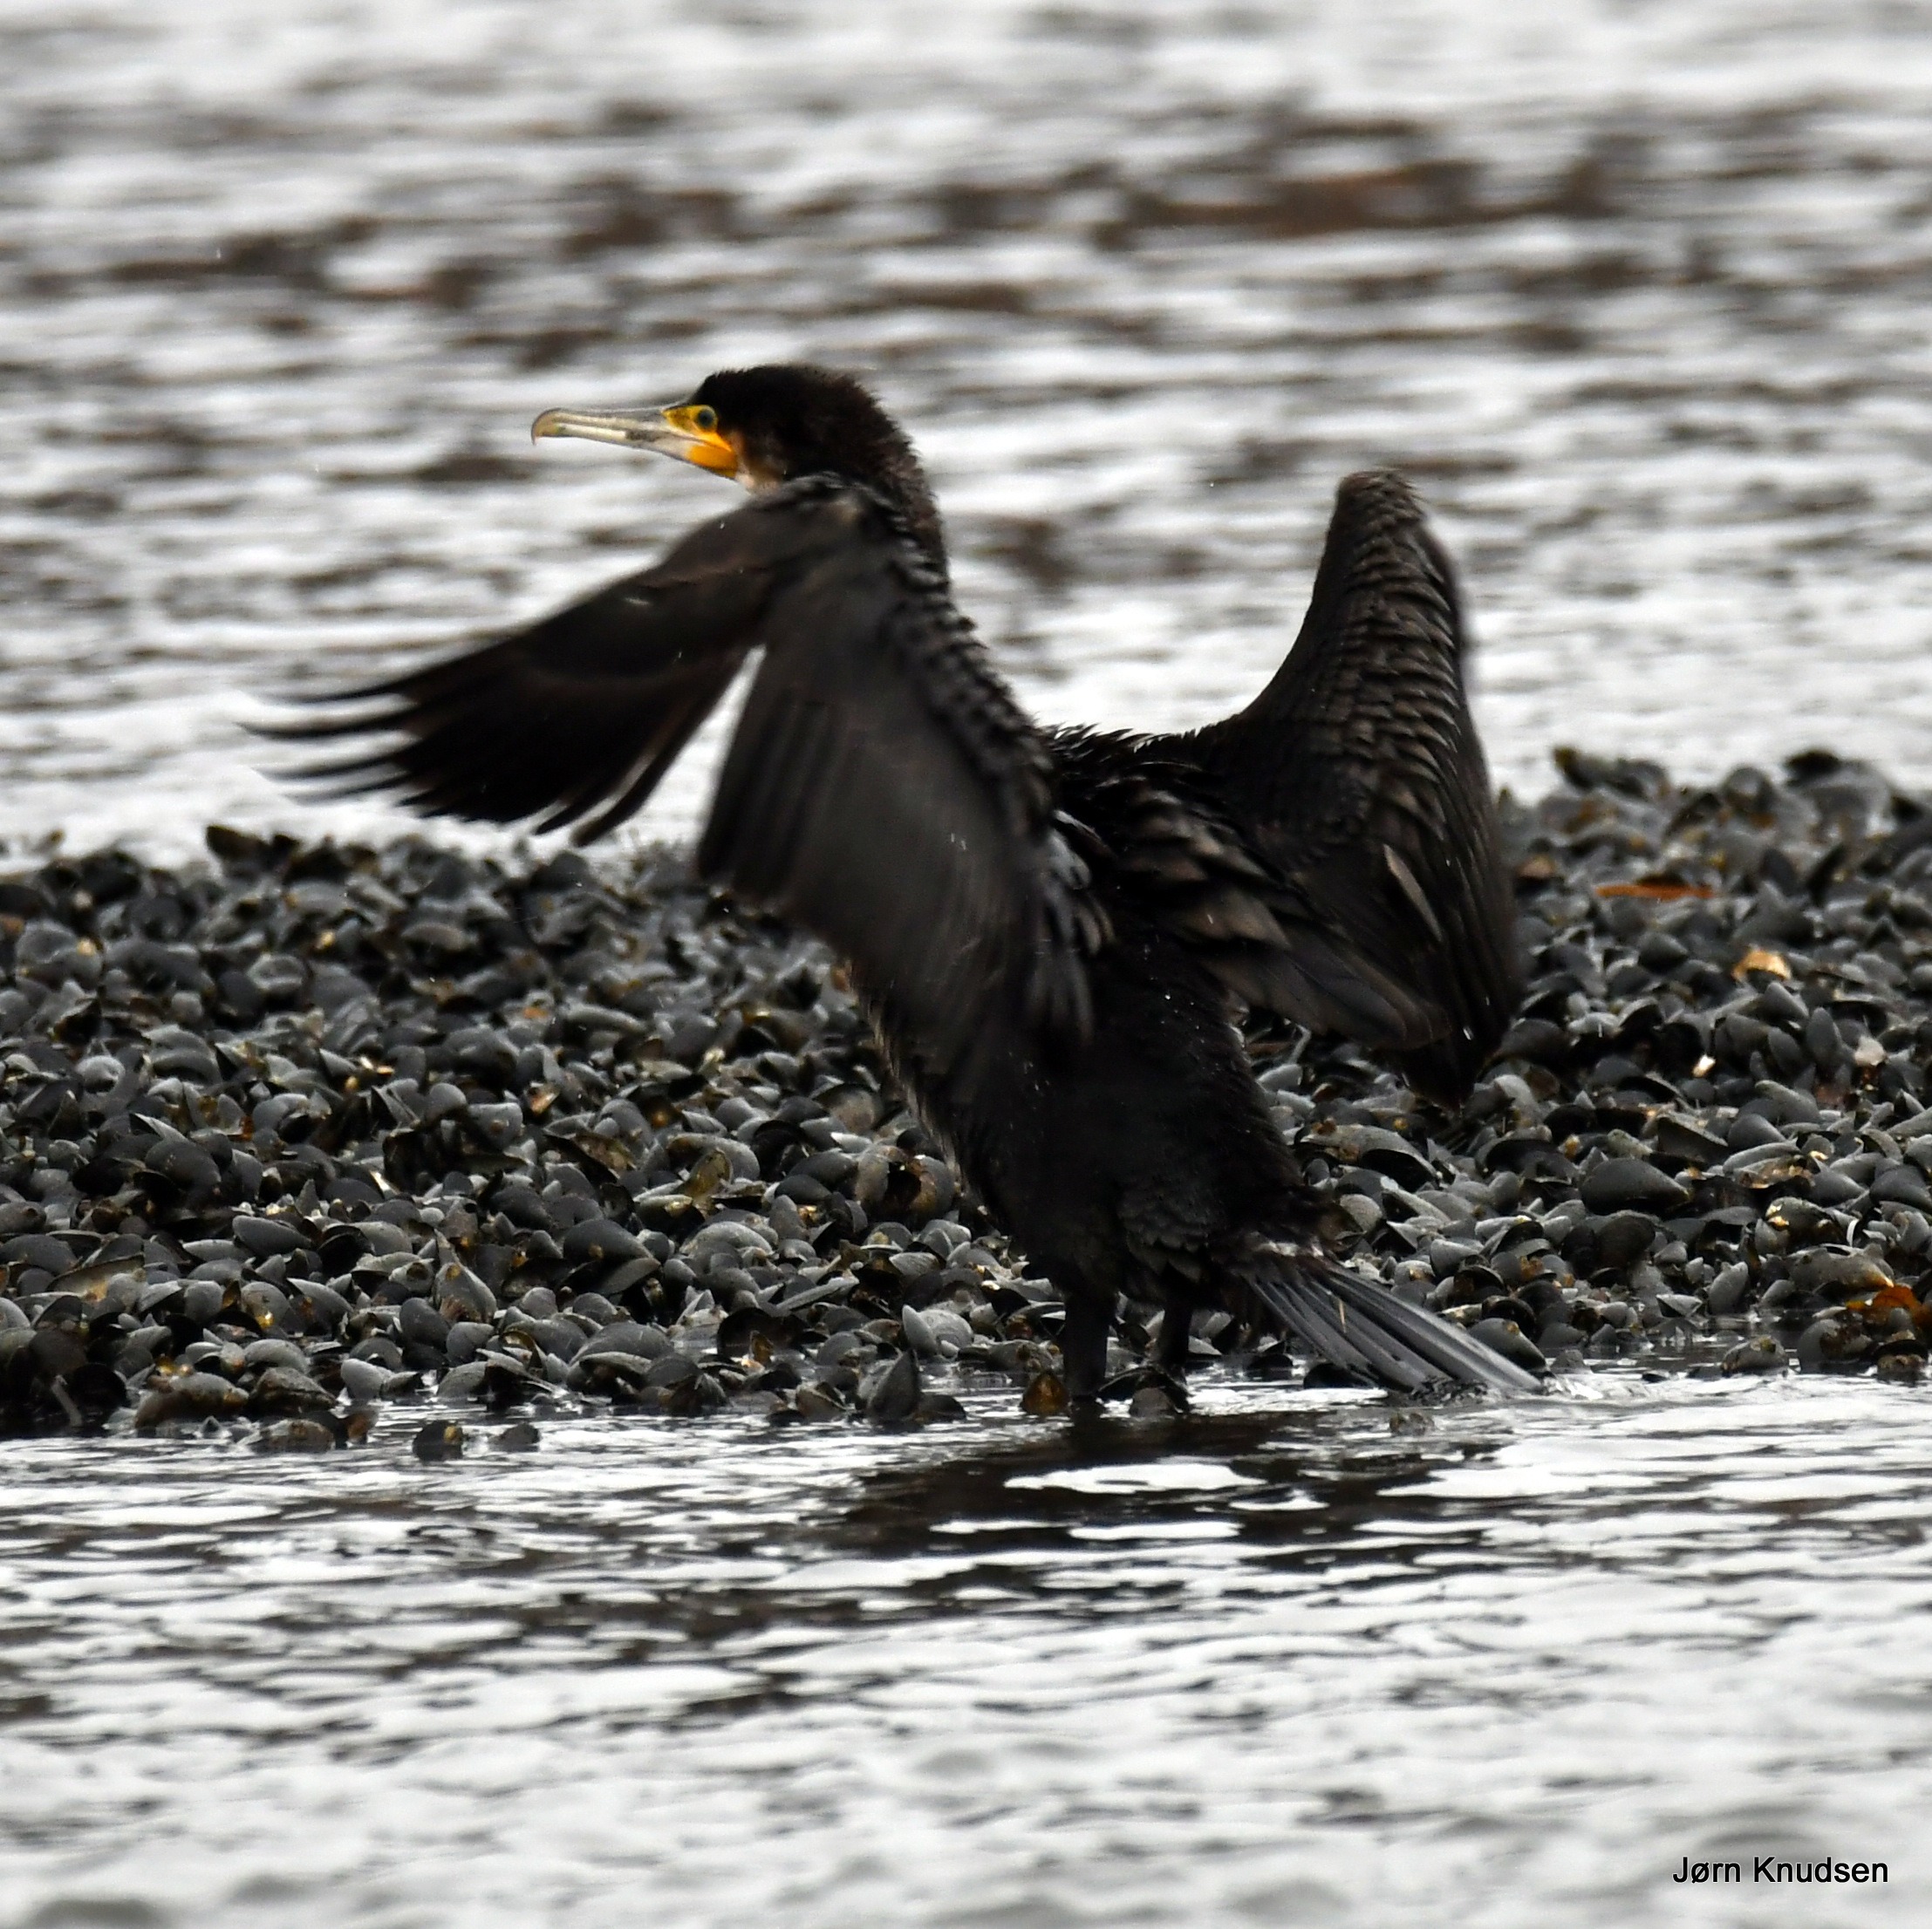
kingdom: Animalia
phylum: Chordata
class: Aves
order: Suliformes
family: Phalacrocoracidae
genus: Phalacrocorax
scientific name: Phalacrocorax carbo
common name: Skarv
